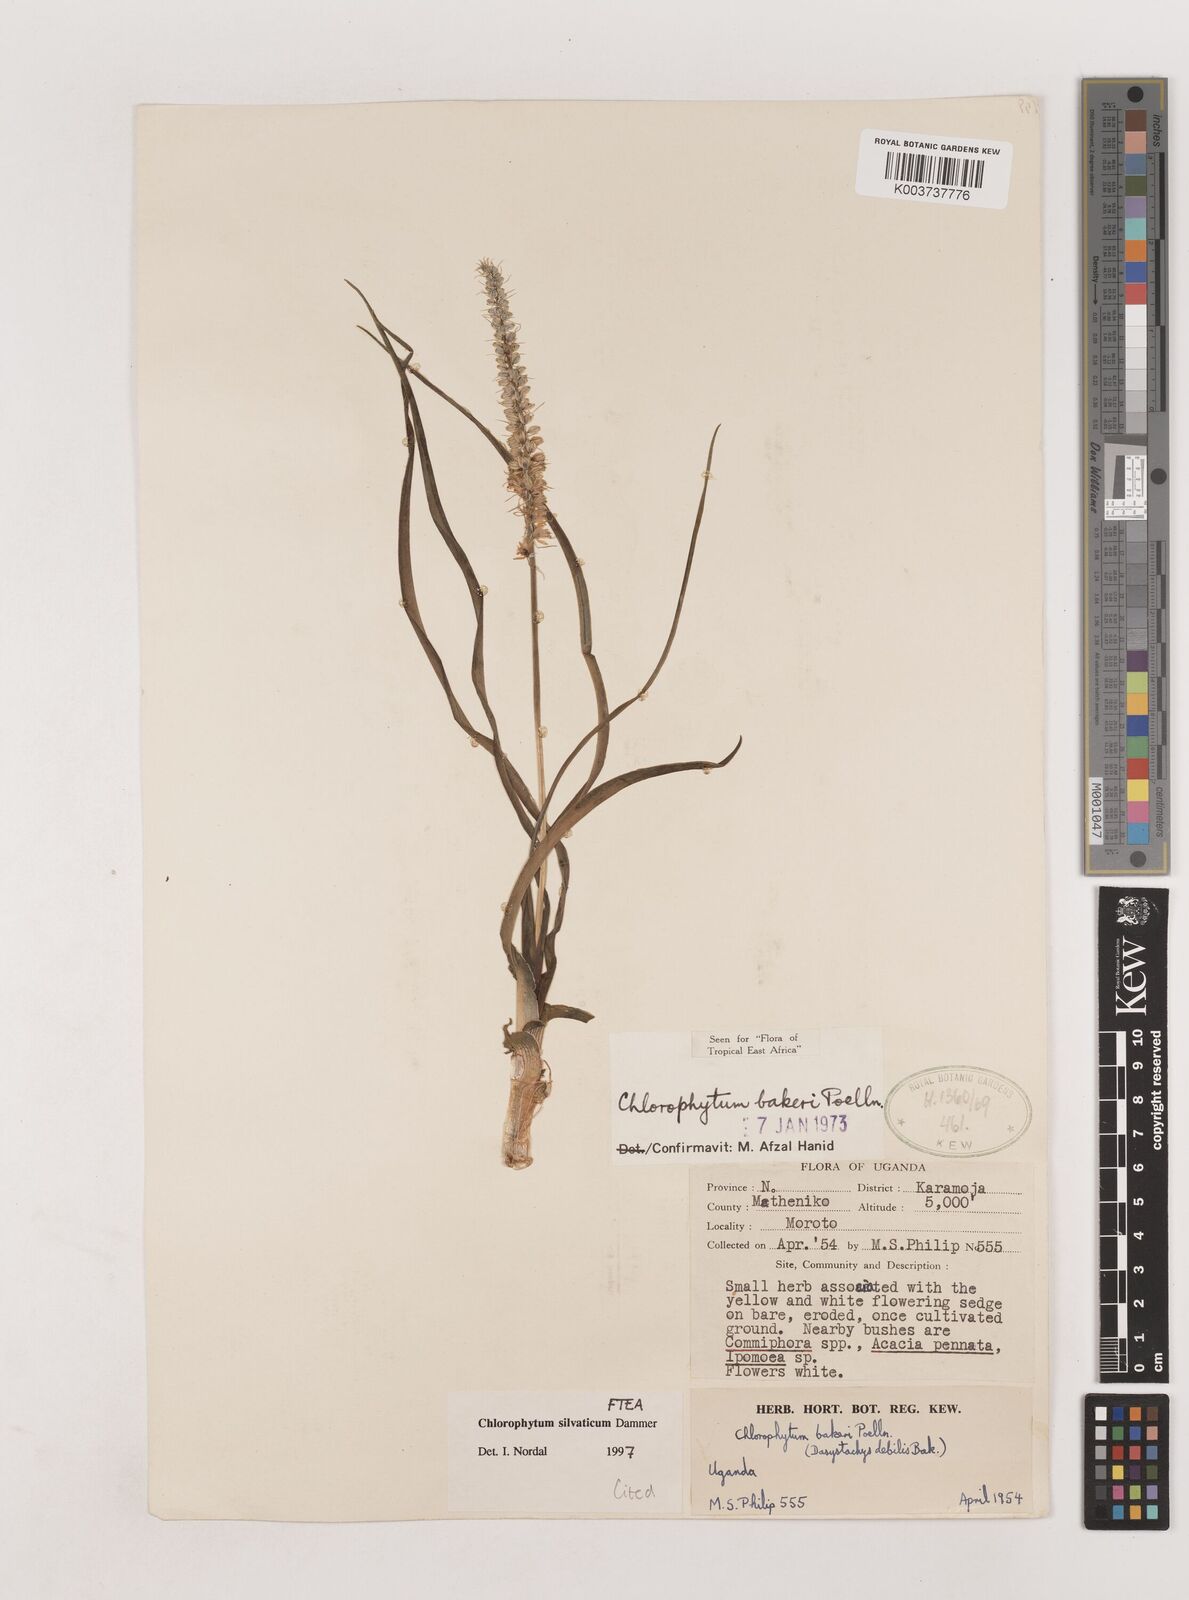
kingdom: Plantae
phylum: Tracheophyta
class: Liliopsida
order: Asparagales
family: Asparagaceae
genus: Chlorophytum
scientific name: Chlorophytum africanum
